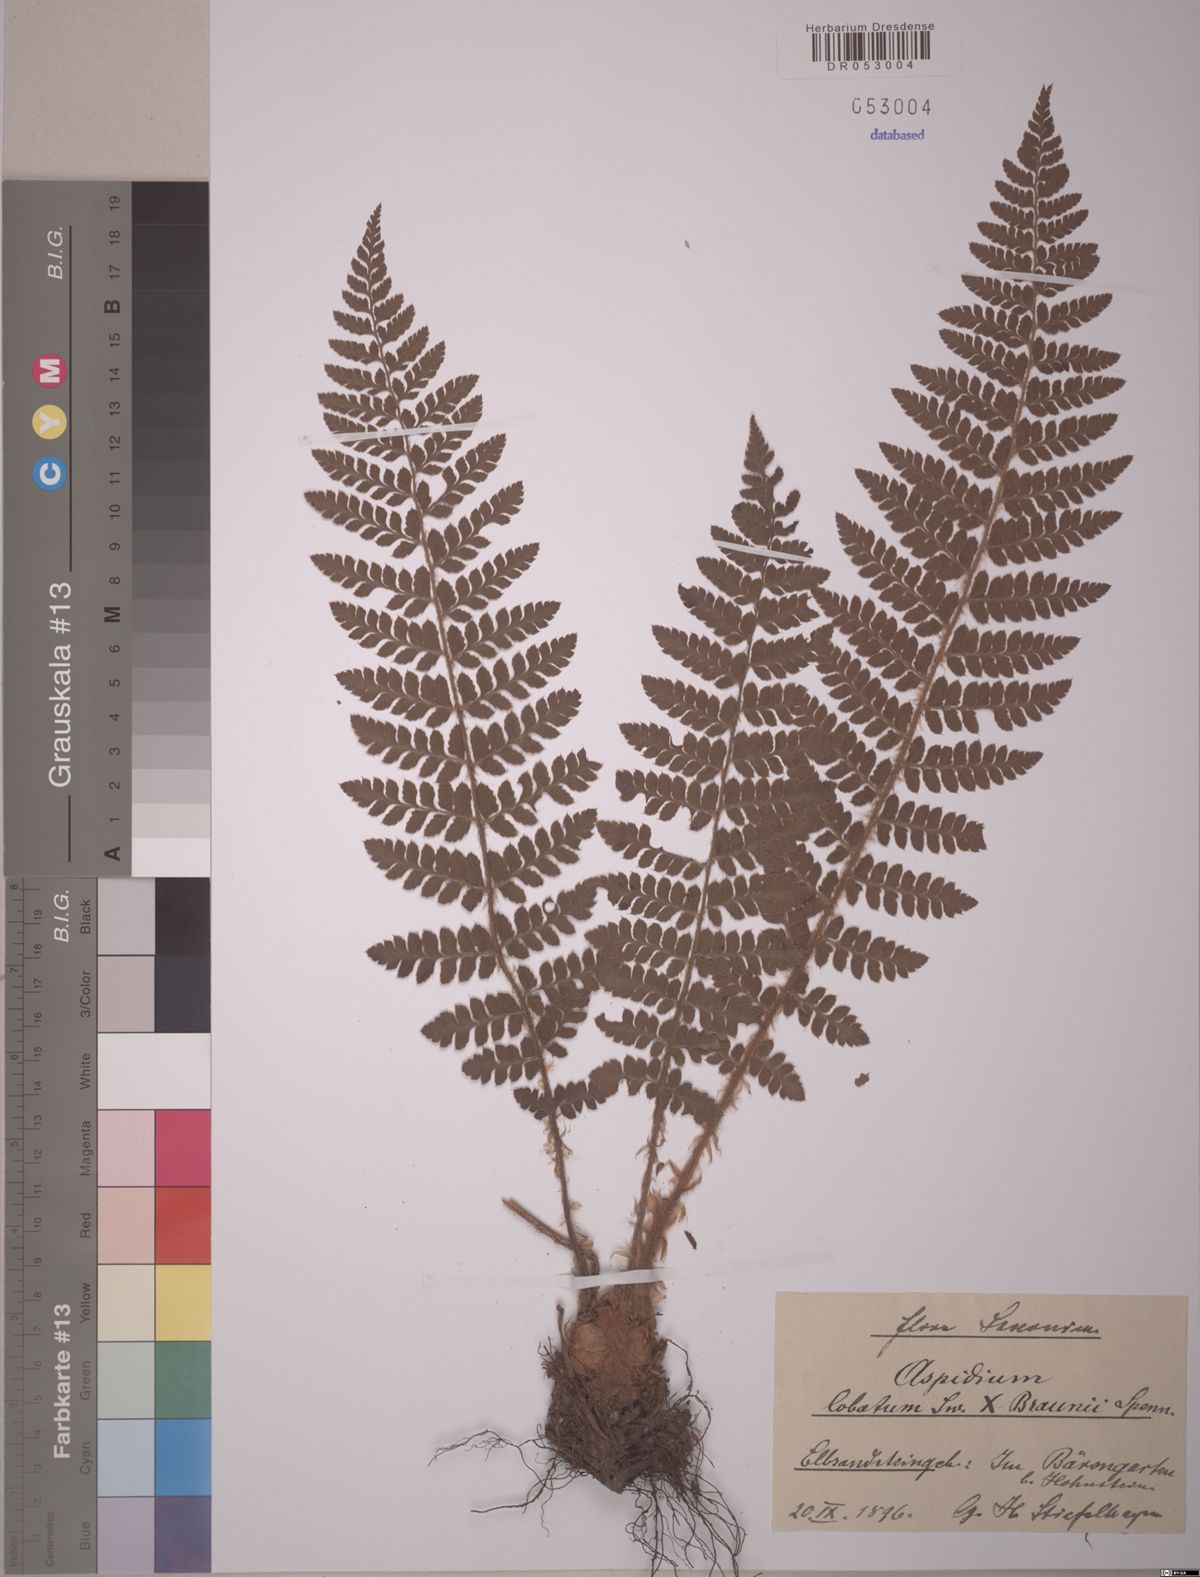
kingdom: Plantae
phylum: Tracheophyta
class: Polypodiopsida
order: Polypodiales
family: Dryopteridaceae
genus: Polystichum
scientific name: Polystichum luerssenii
